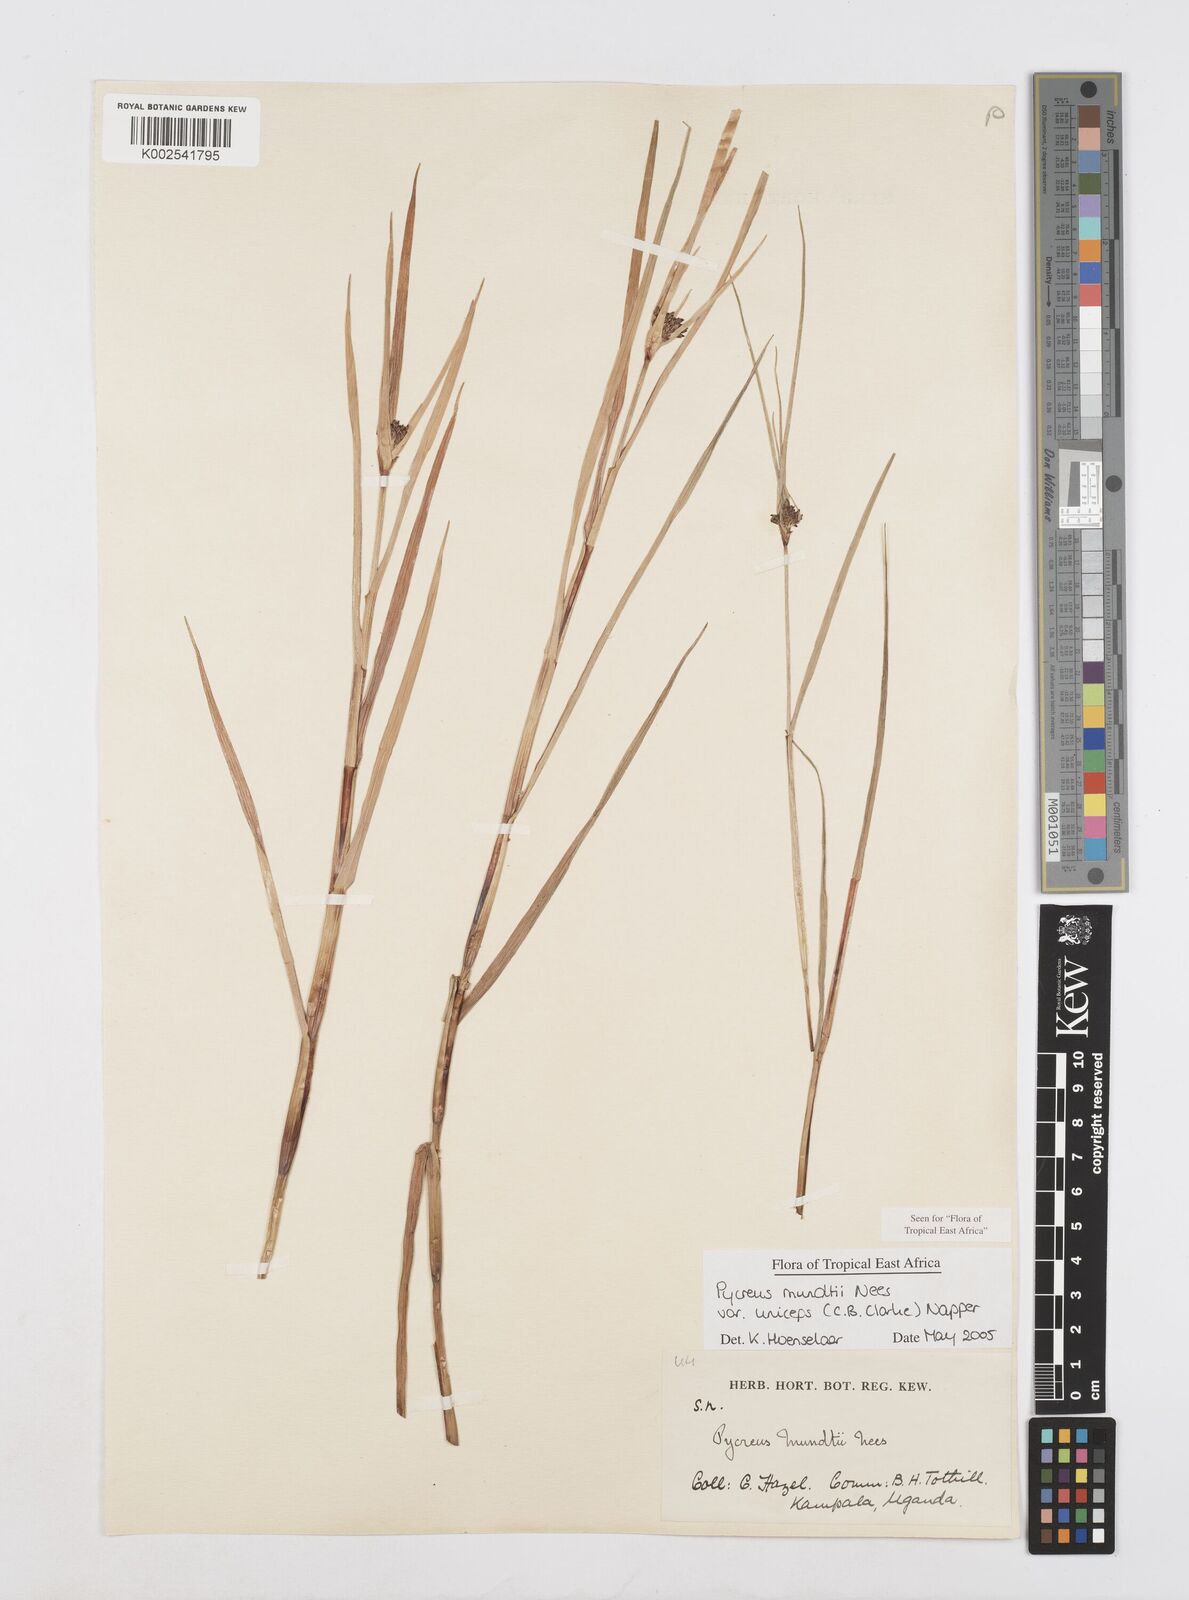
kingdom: Plantae
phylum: Tracheophyta
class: Liliopsida
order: Poales
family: Cyperaceae
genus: Cyperus
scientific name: Cyperus mundii
